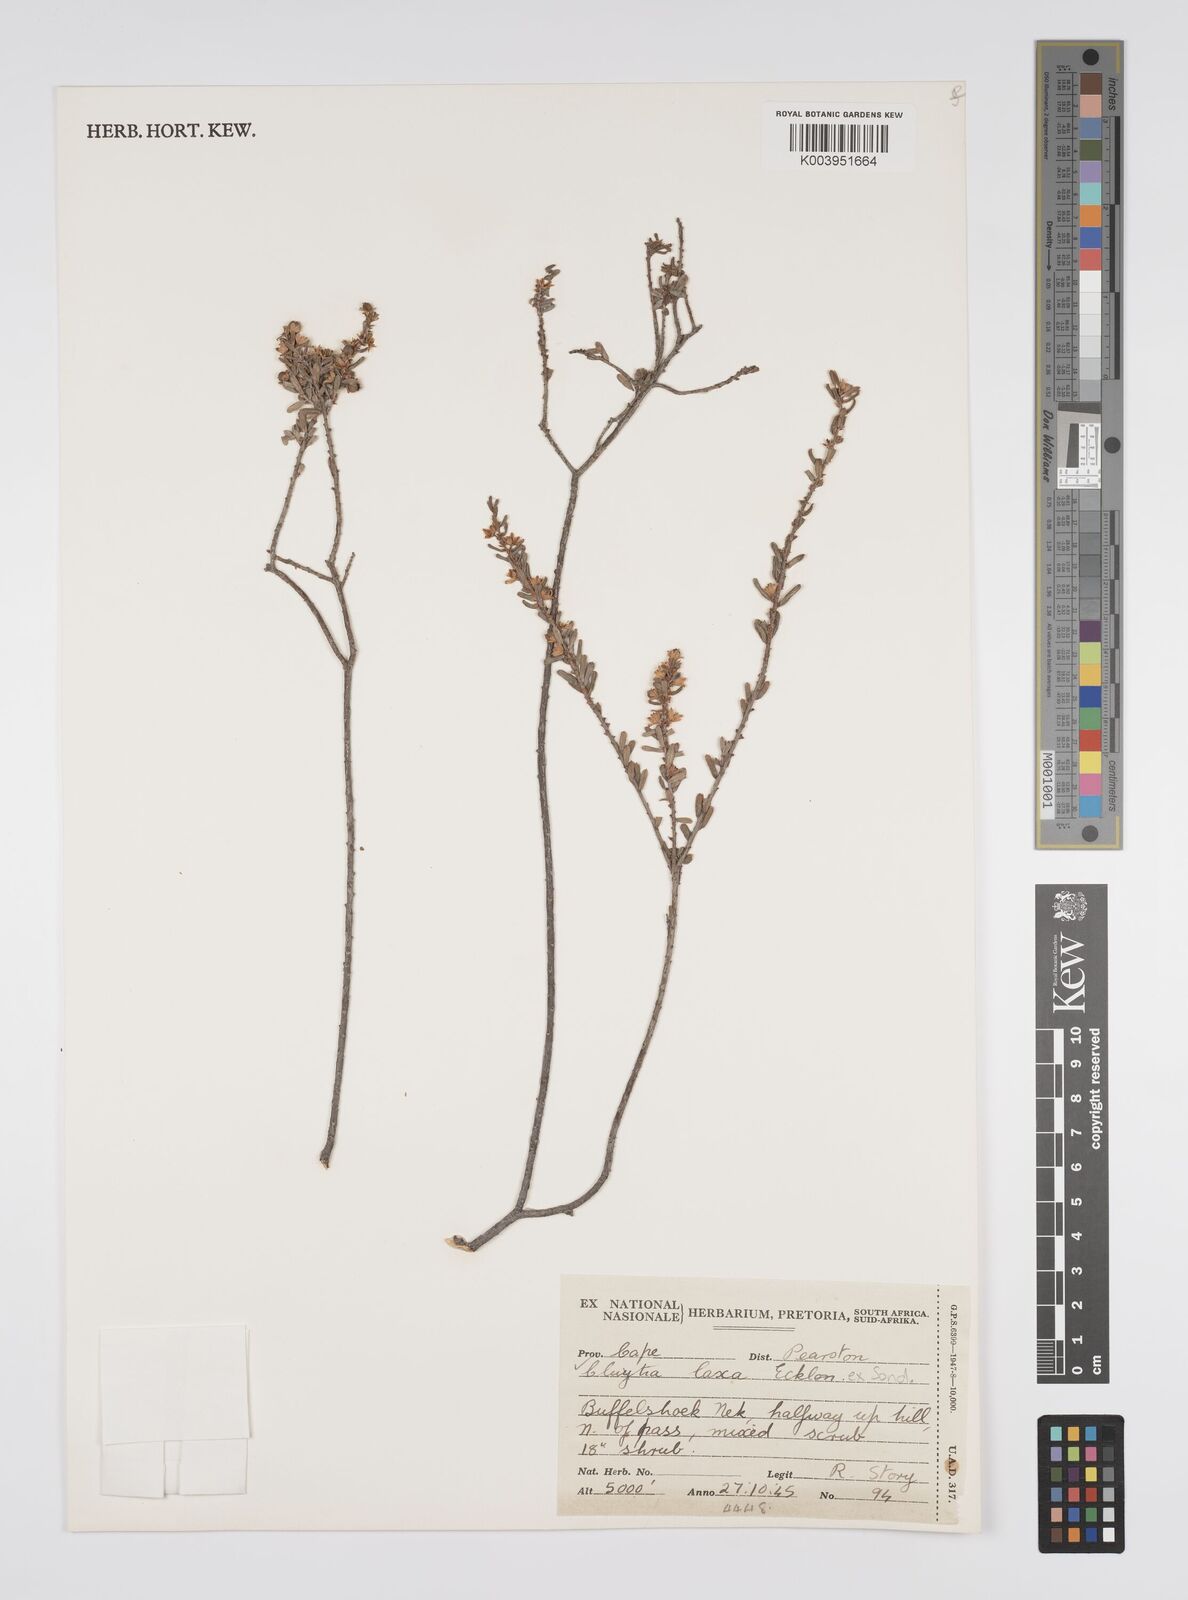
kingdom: Plantae
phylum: Tracheophyta
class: Magnoliopsida
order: Malpighiales
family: Peraceae
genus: Clutia
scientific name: Clutia laxa
